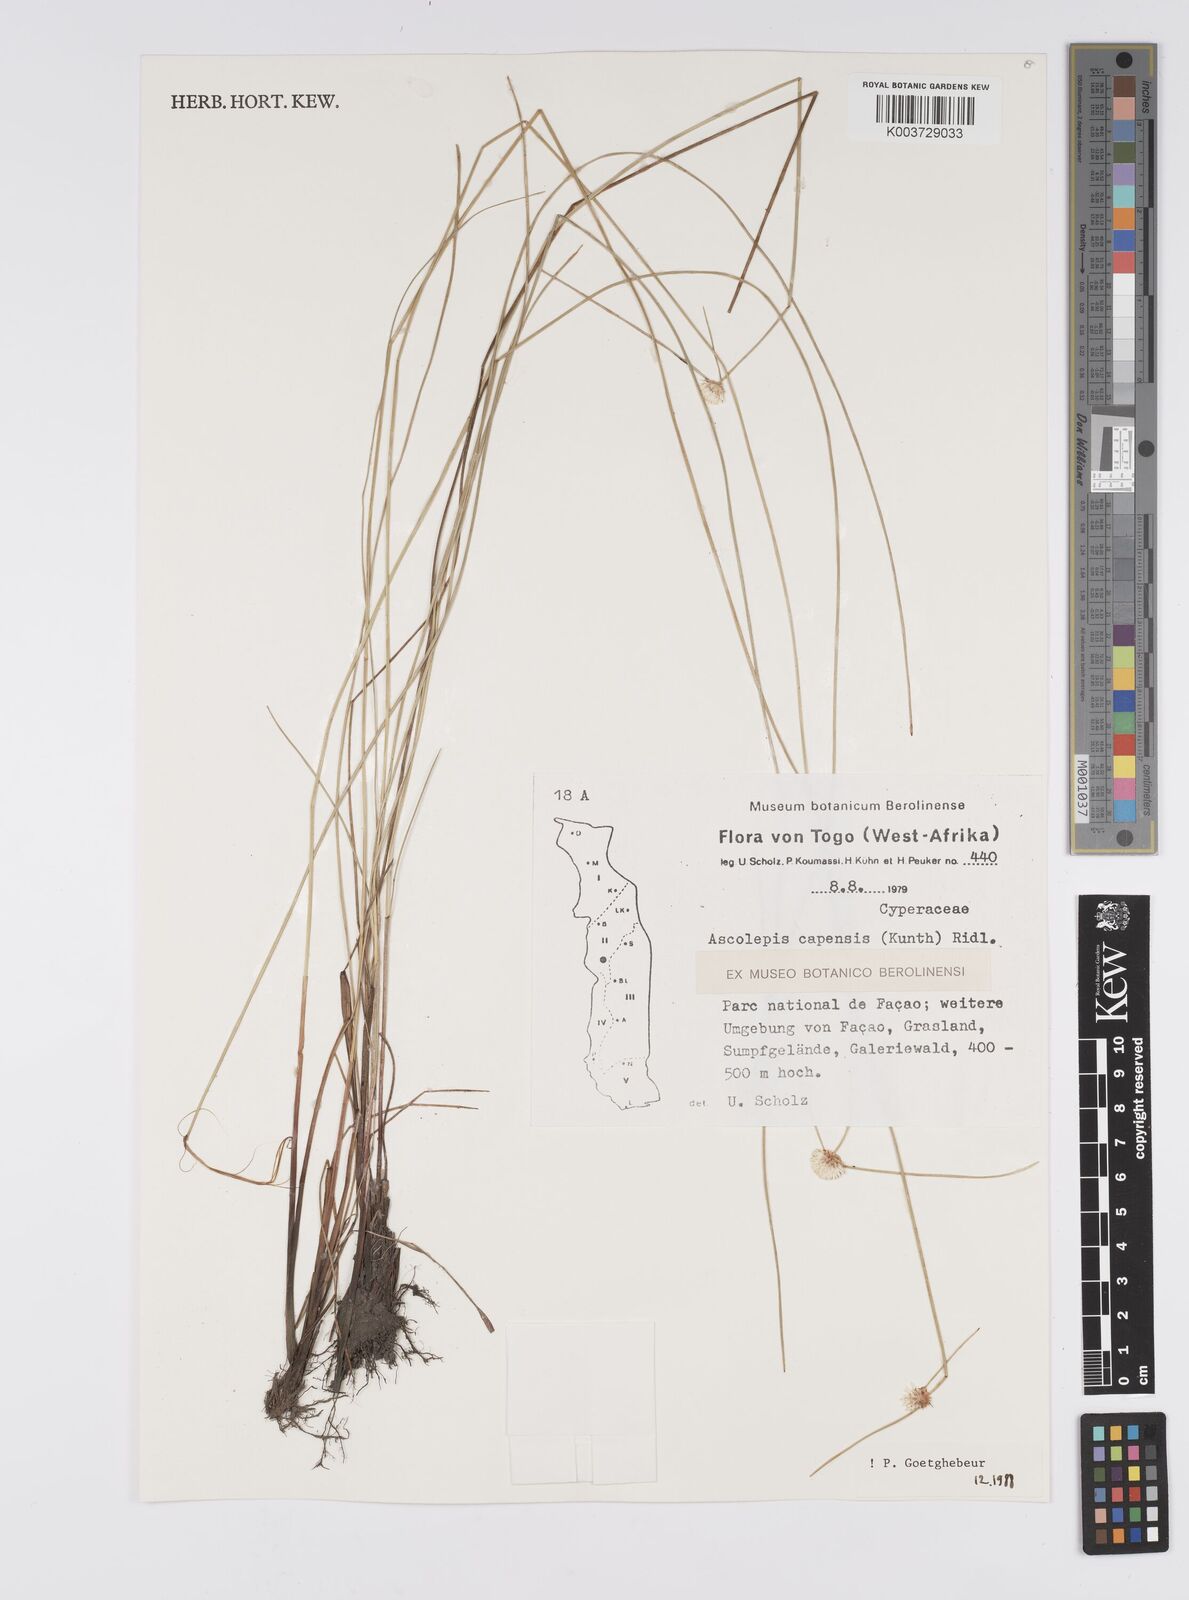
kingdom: Plantae
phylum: Tracheophyta
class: Liliopsida
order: Poales
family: Cyperaceae
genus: Ascolepis
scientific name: Ascolepis
